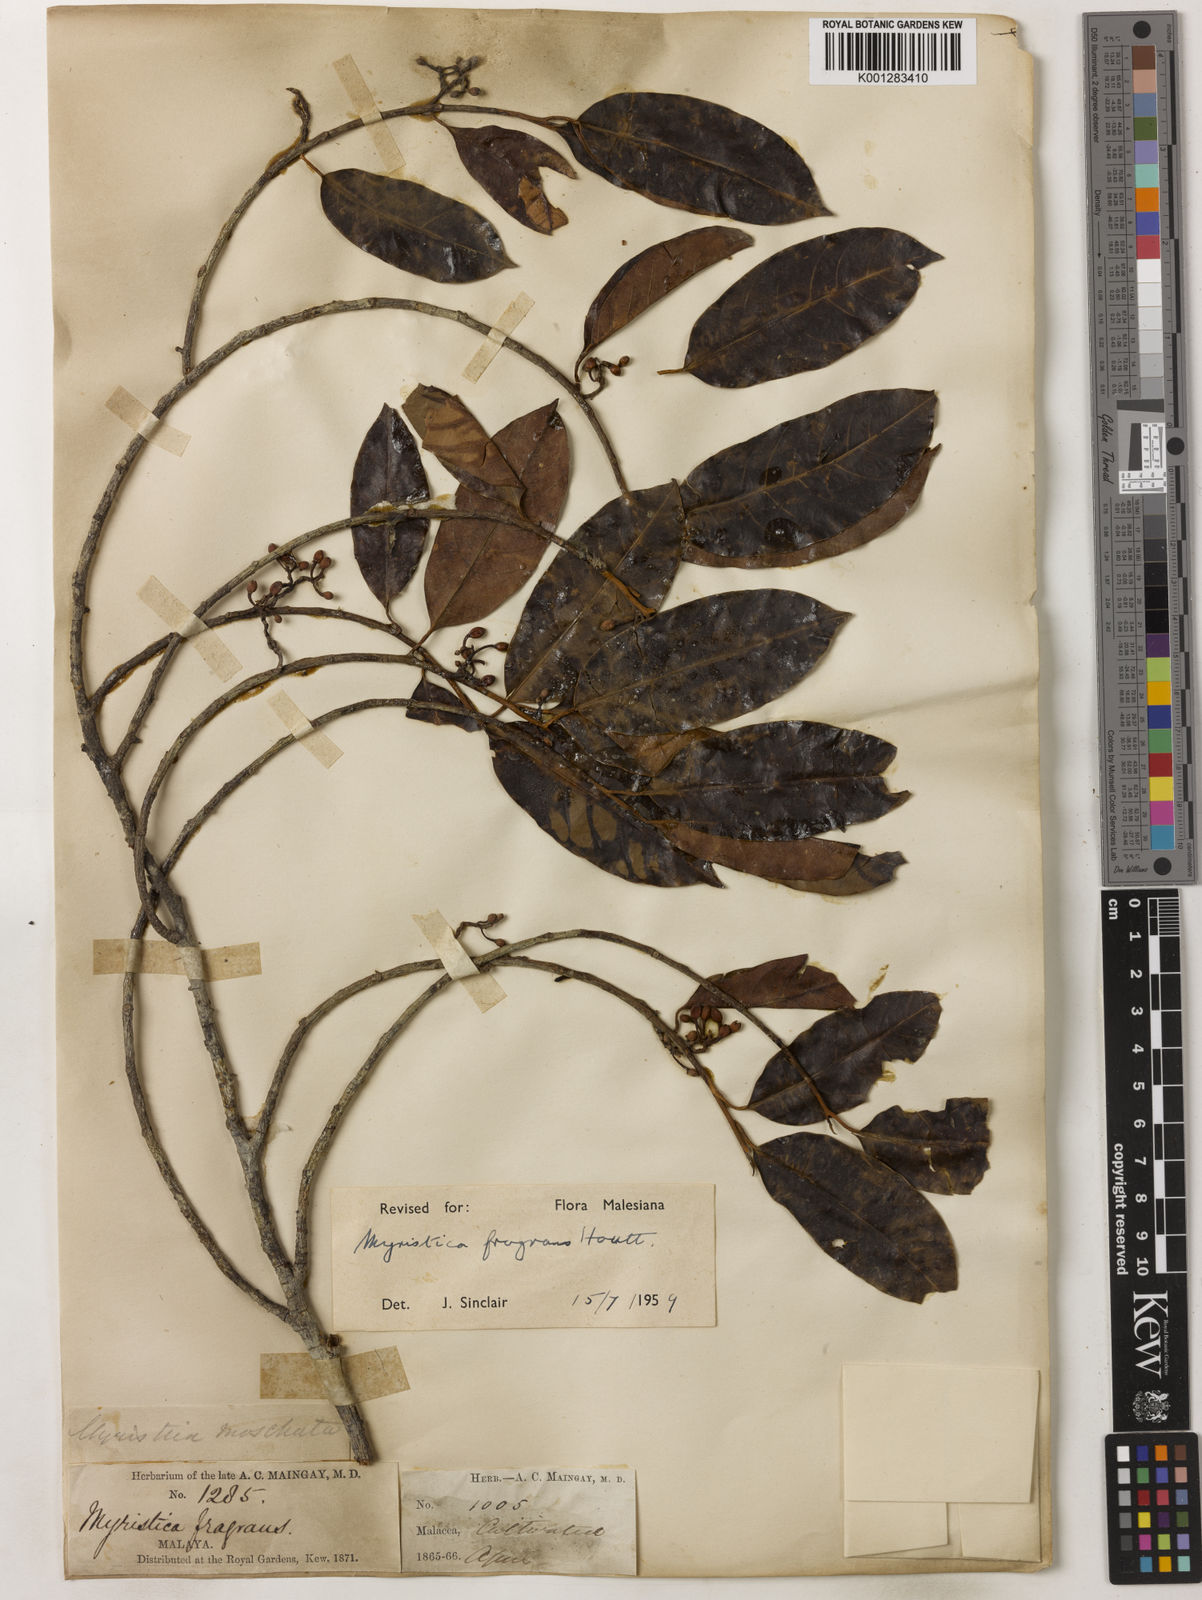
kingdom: Plantae
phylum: Tracheophyta
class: Magnoliopsida
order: Magnoliales
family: Myristicaceae
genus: Myristica
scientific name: Myristica fragrans
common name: Nutmeg
